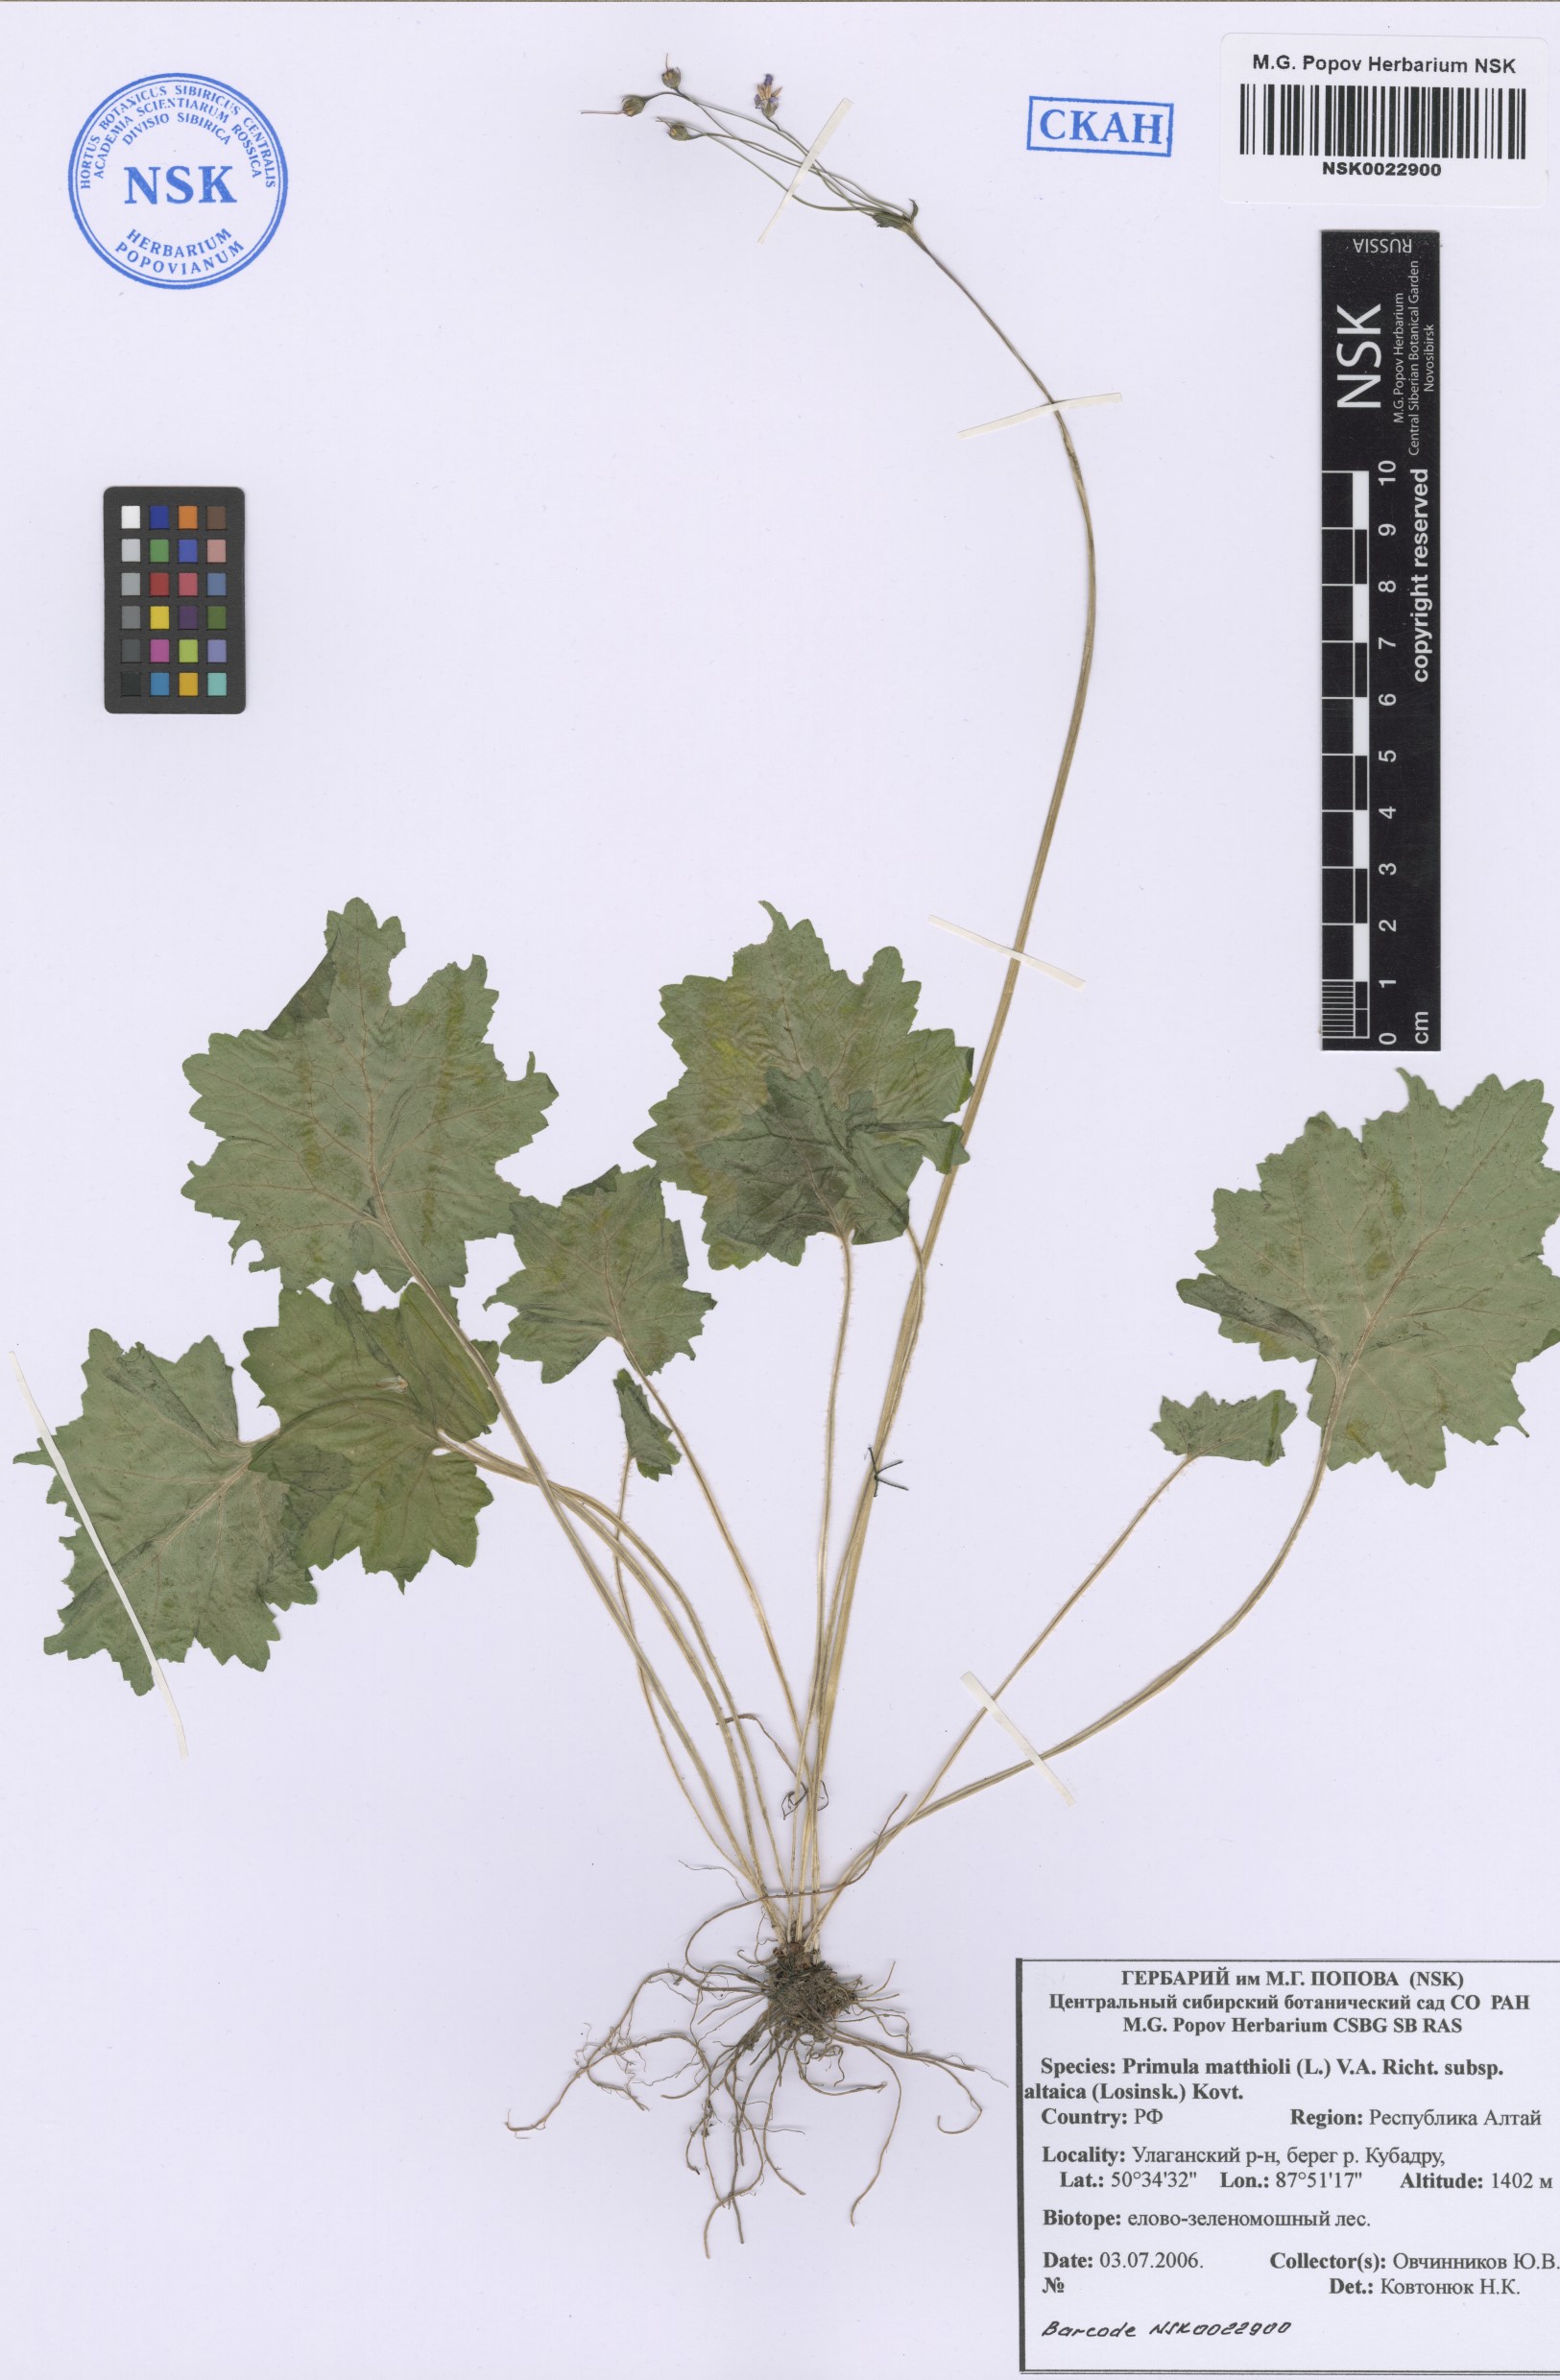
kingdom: Plantae
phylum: Tracheophyta
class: Magnoliopsida
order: Ericales
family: Primulaceae
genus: Primula
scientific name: Primula matthioli
